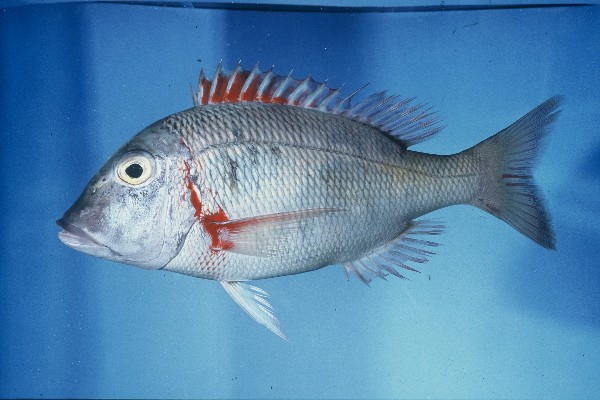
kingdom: Animalia
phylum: Chordata
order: Perciformes
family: Lethrinidae
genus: Lethrinus
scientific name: Lethrinus mahsena
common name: Sky emperor
